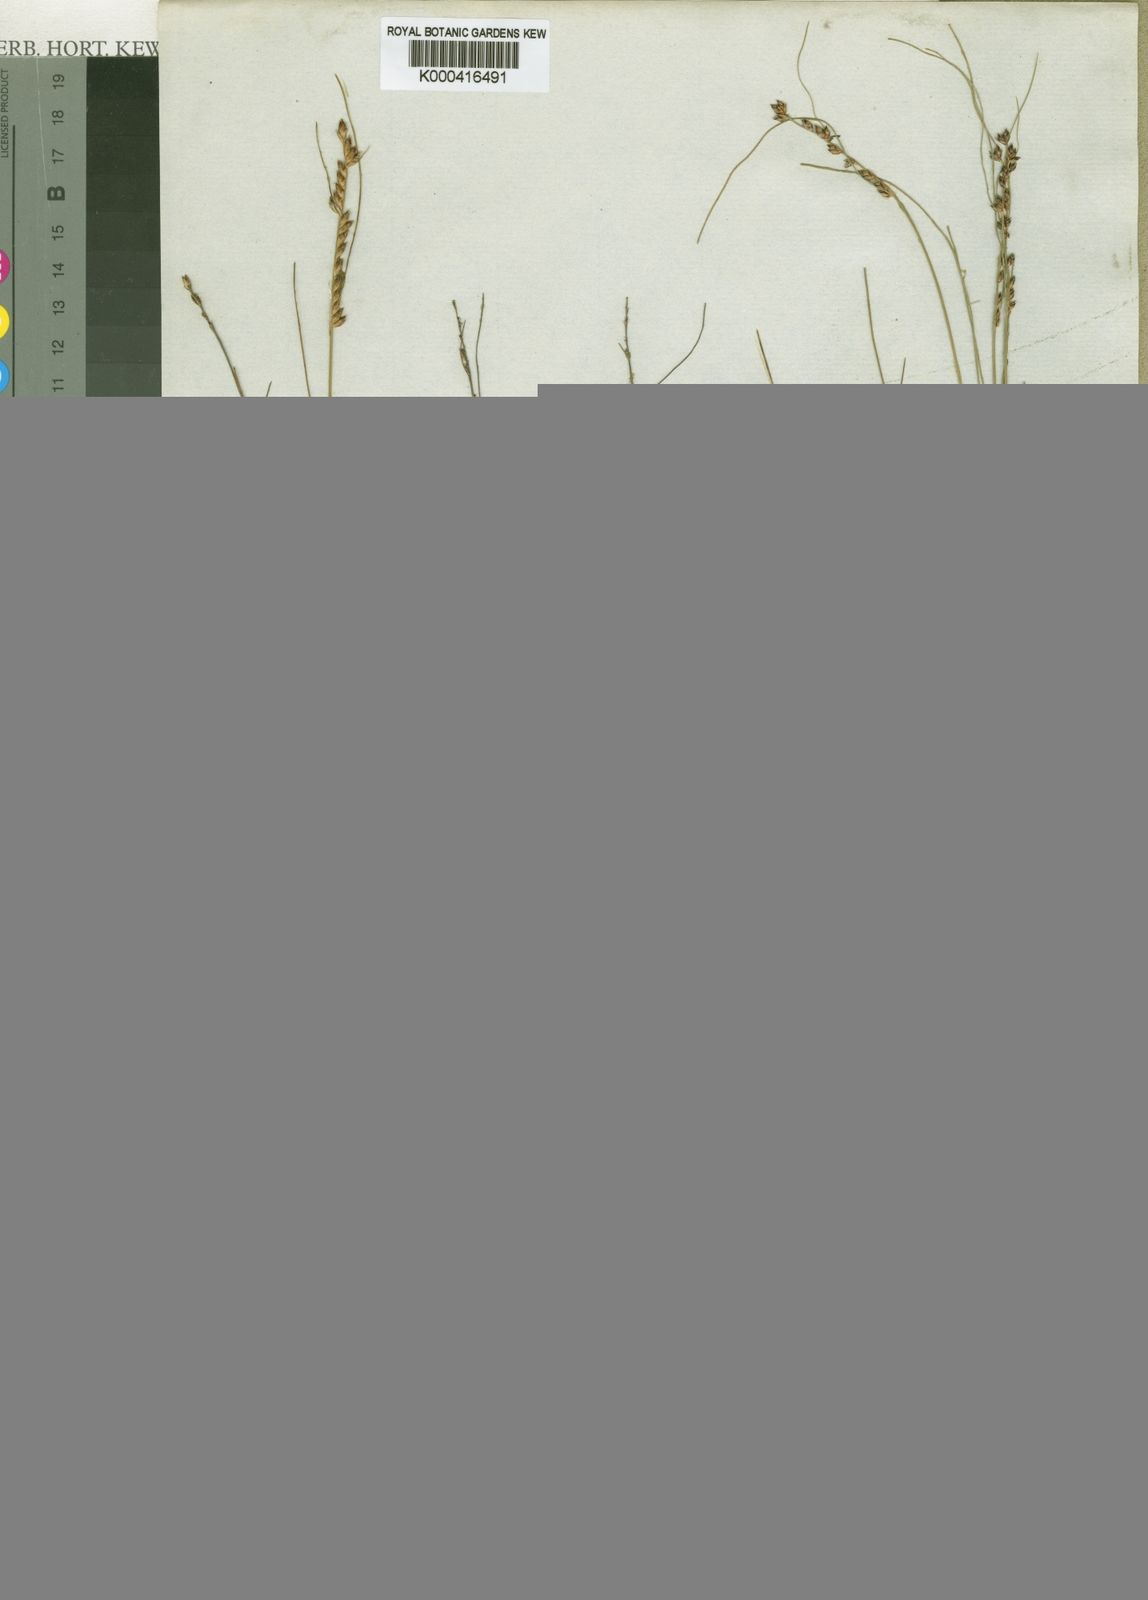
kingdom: Plantae
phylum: Tracheophyta
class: Liliopsida
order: Poales
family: Cyperaceae
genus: Ficinia
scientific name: Ficinia secunda
